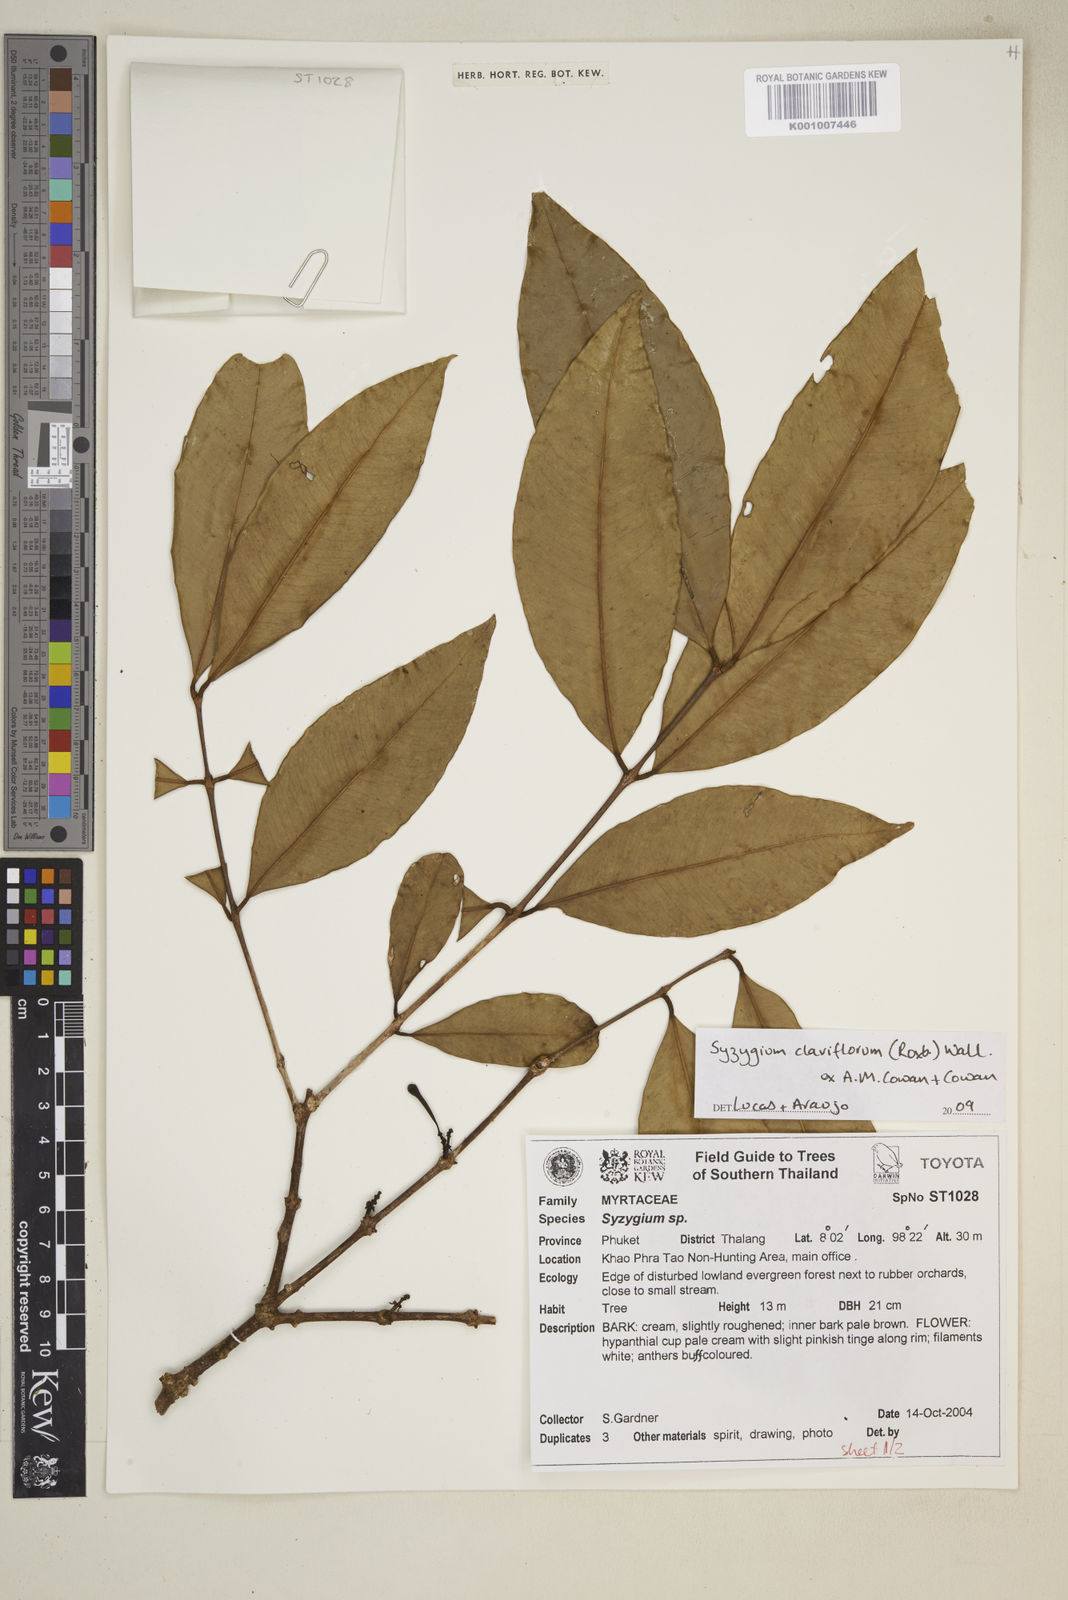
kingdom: Plantae
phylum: Tracheophyta
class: Magnoliopsida
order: Myrtales
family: Myrtaceae
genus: Syzygium
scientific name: Syzygium claviflorum
